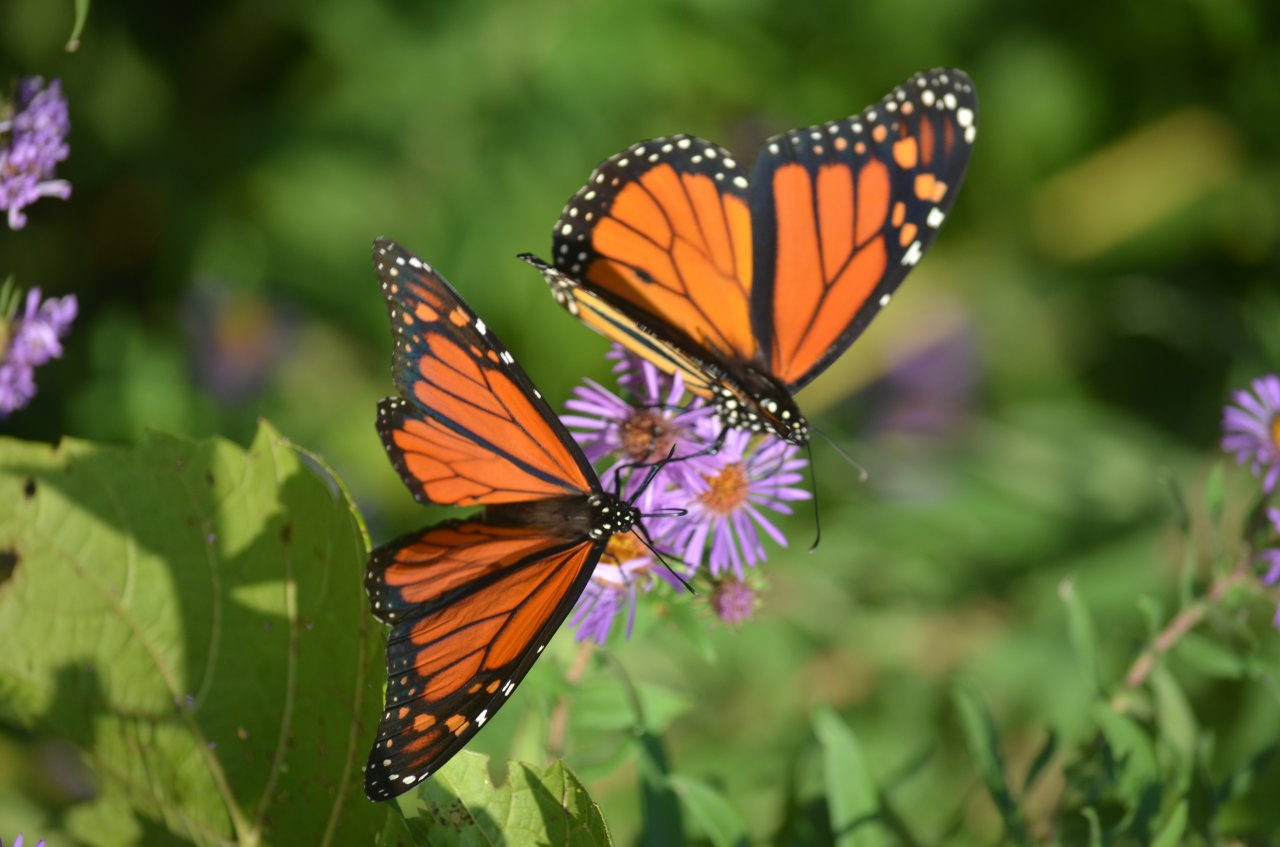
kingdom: Animalia
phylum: Arthropoda
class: Insecta
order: Lepidoptera
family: Nymphalidae
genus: Danaus
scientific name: Danaus plexippus
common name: Monarch
